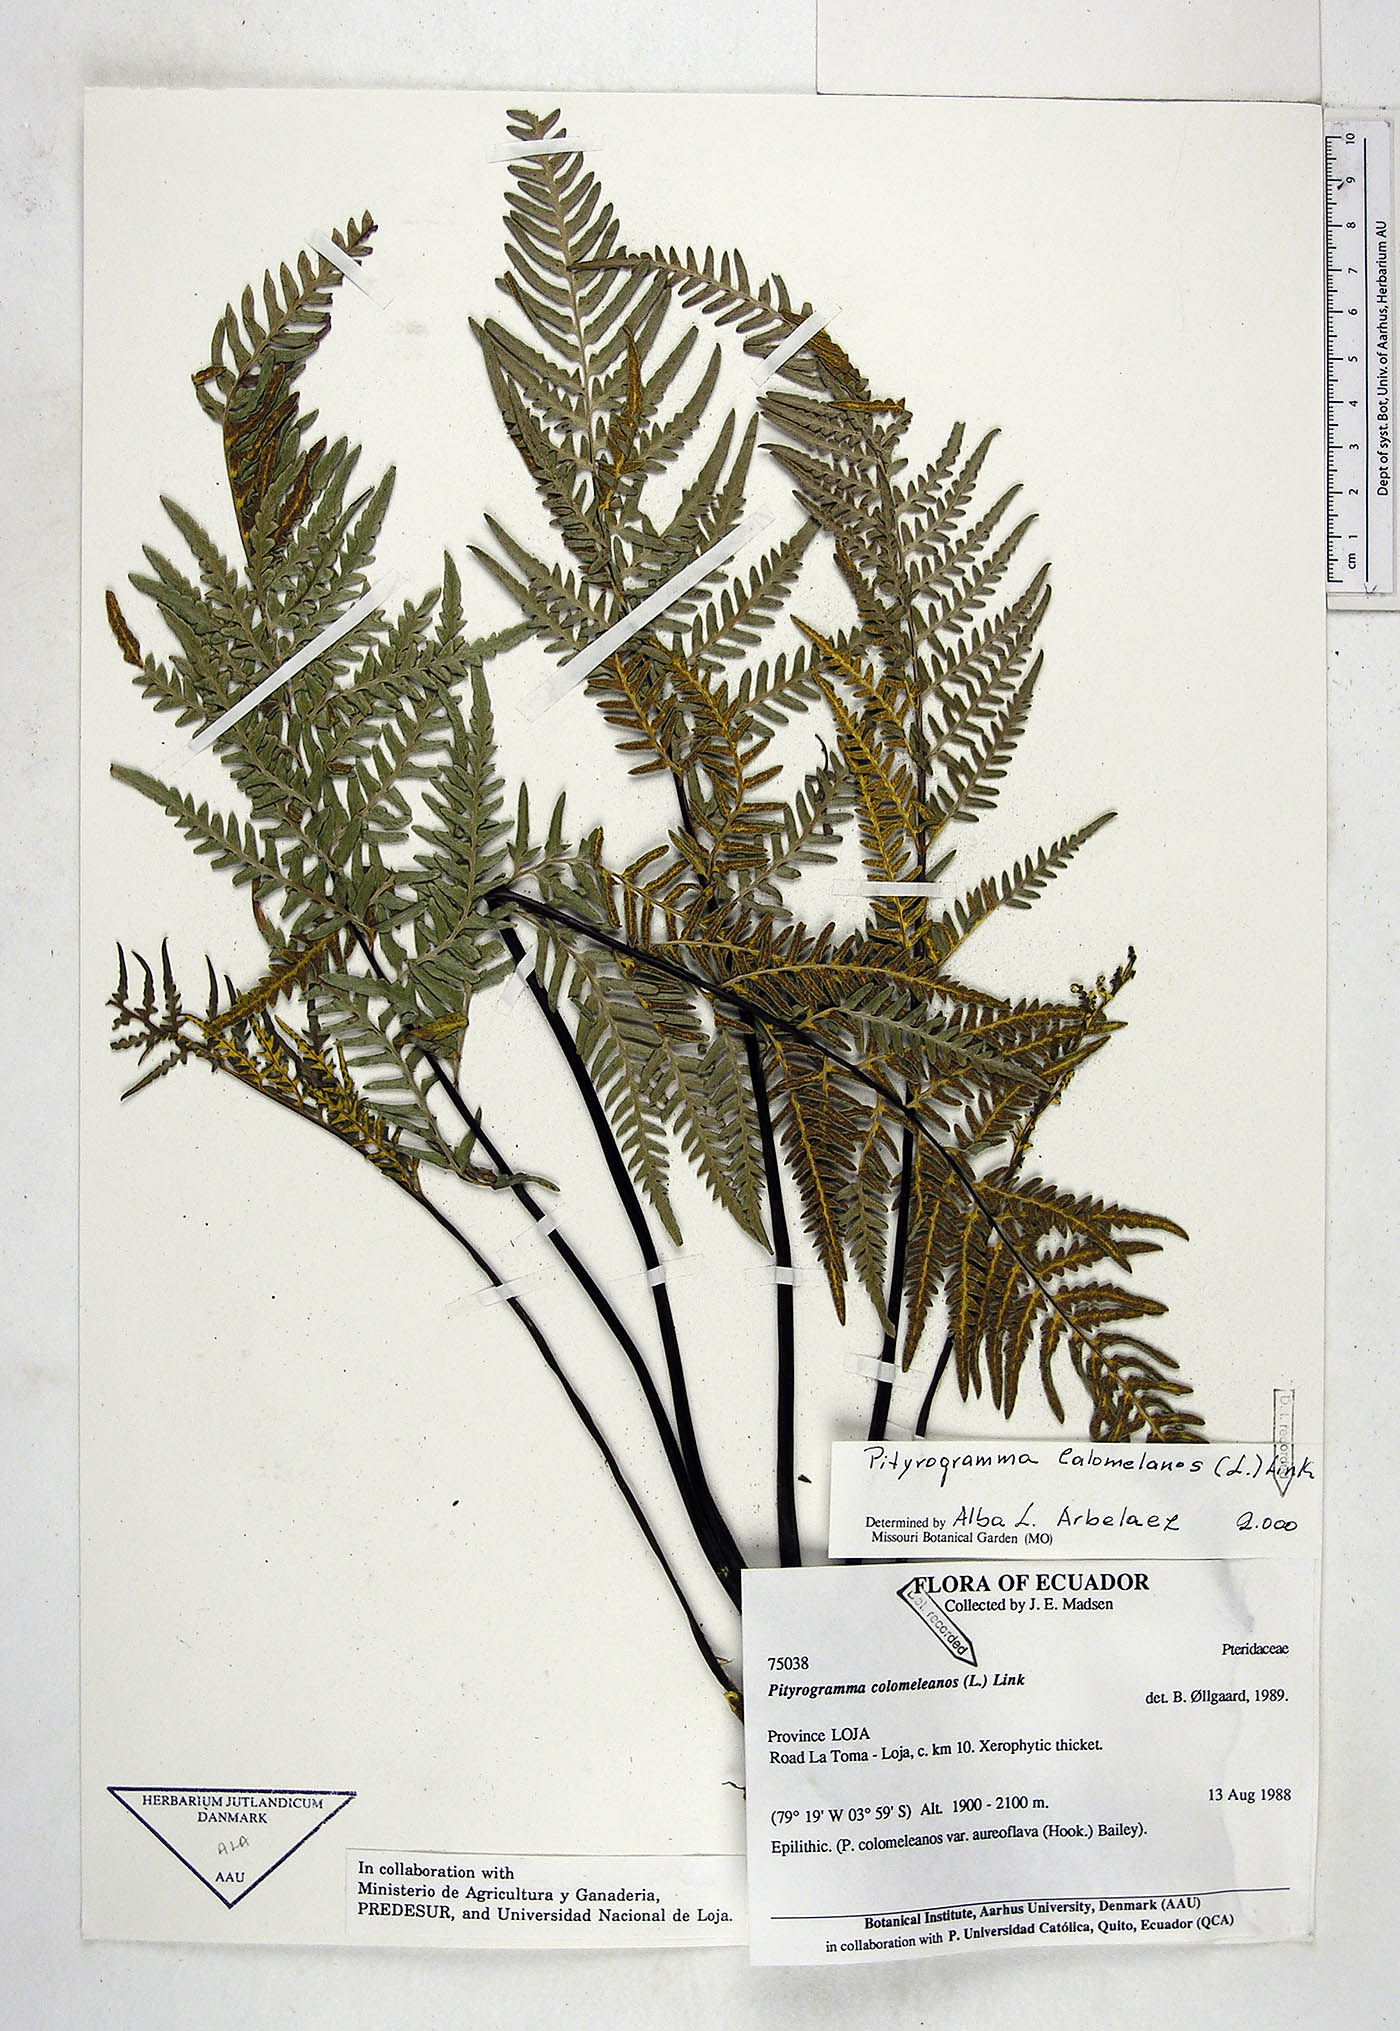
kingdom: Plantae
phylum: Tracheophyta
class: Polypodiopsida
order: Polypodiales
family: Pteridaceae
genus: Pityrogramma
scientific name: Pityrogramma calomelanos
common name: Dixie silverback fern
